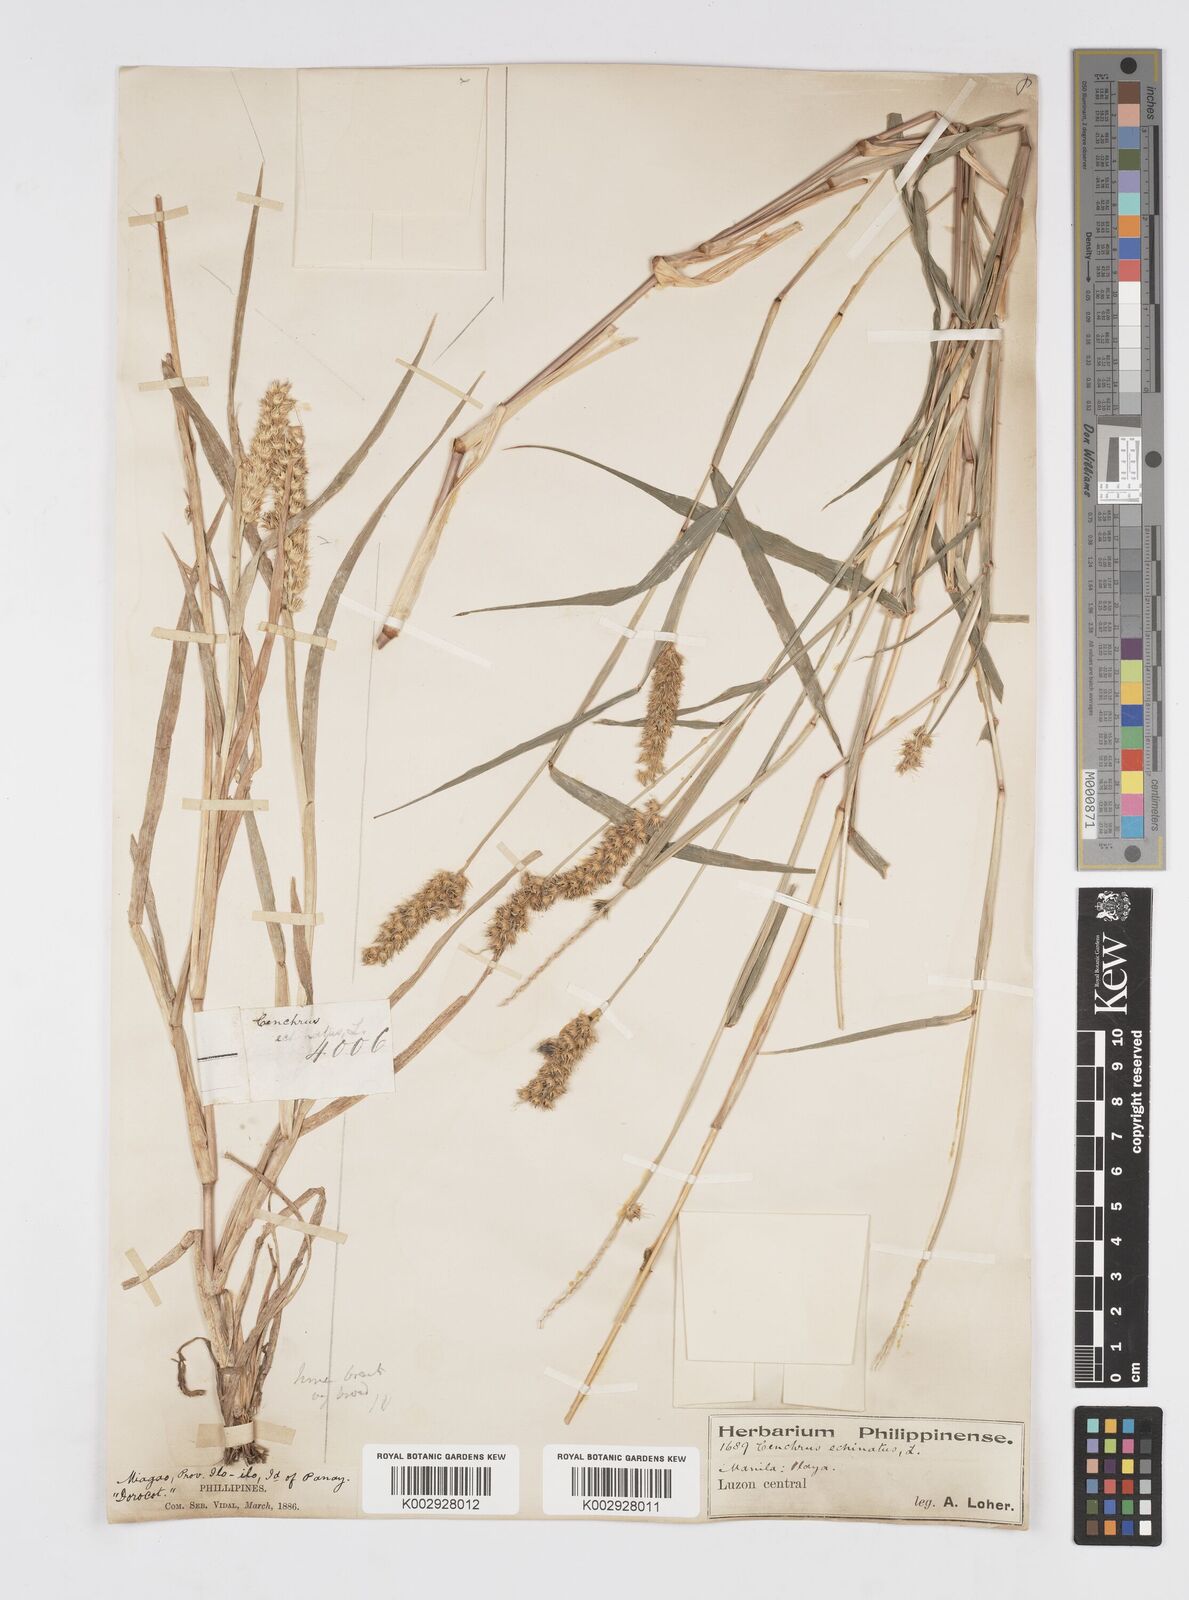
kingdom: Plantae
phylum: Tracheophyta
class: Liliopsida
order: Poales
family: Poaceae
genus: Cenchrus
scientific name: Cenchrus brownii
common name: Slim-bristle sandbur
